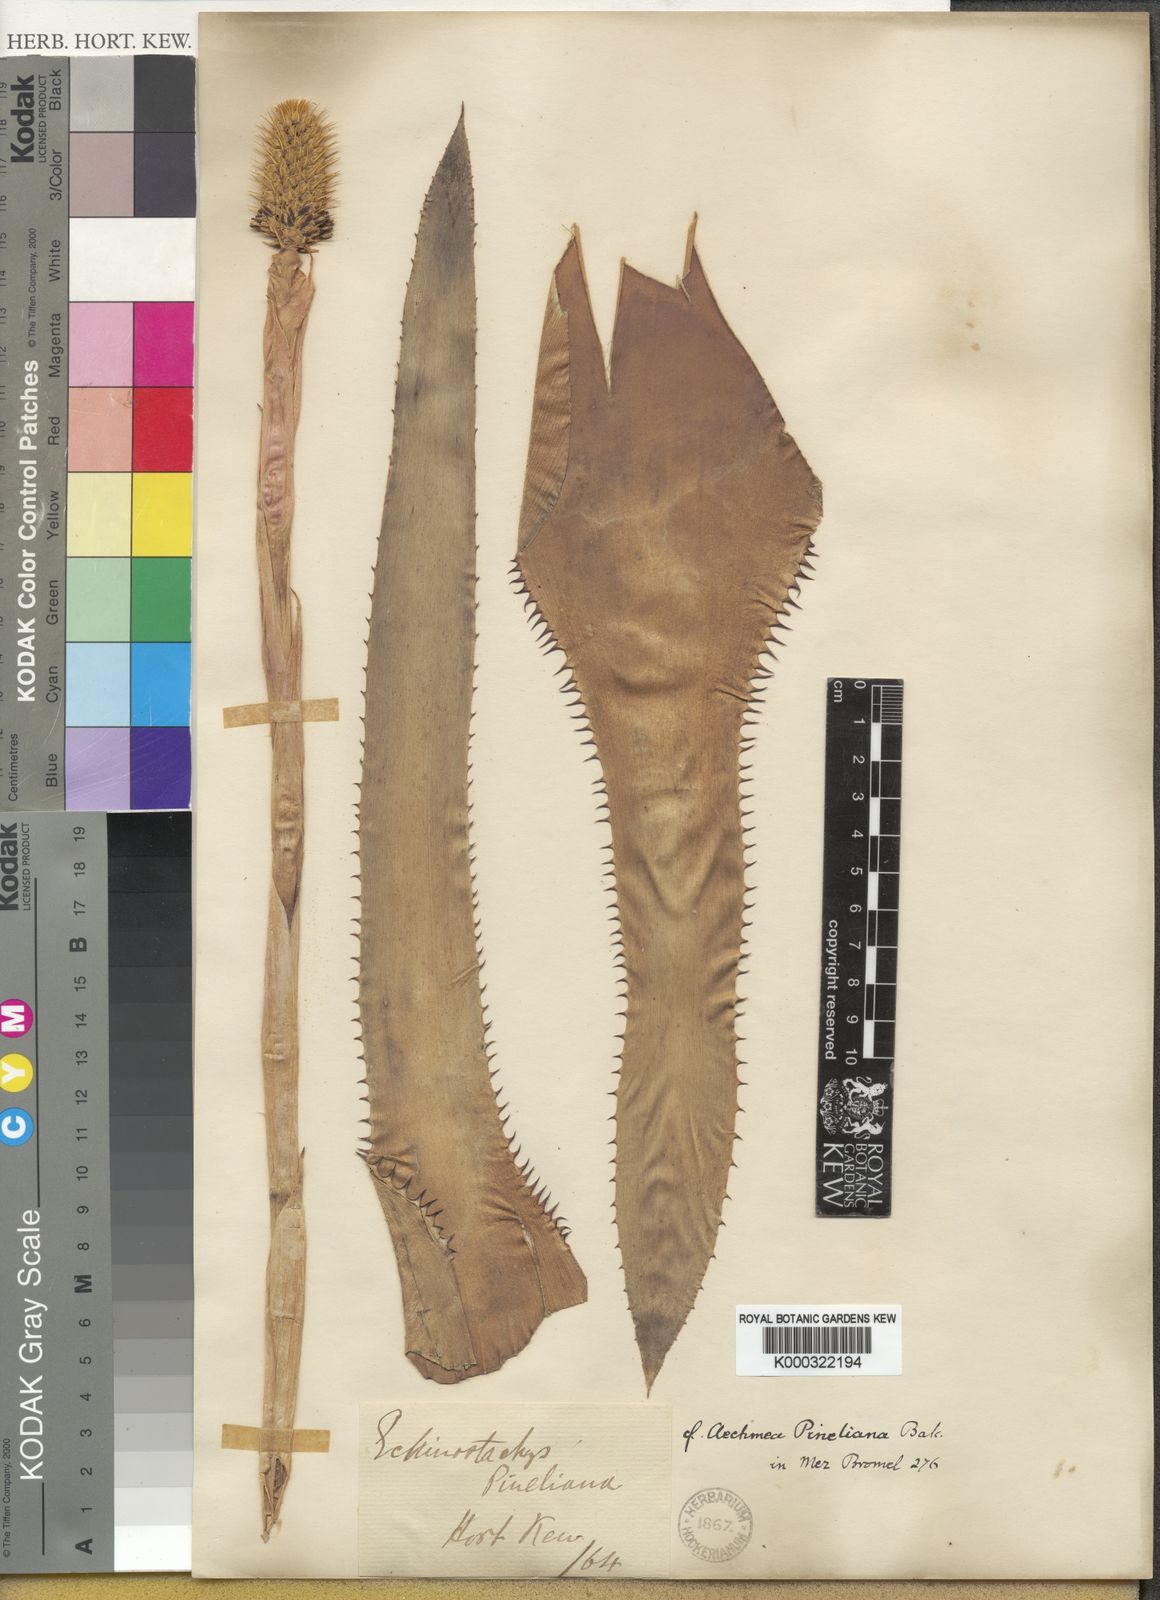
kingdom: Plantae
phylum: Tracheophyta
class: Liliopsida
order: Poales
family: Bromeliaceae
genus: Aechmea
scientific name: Aechmea pineliana
